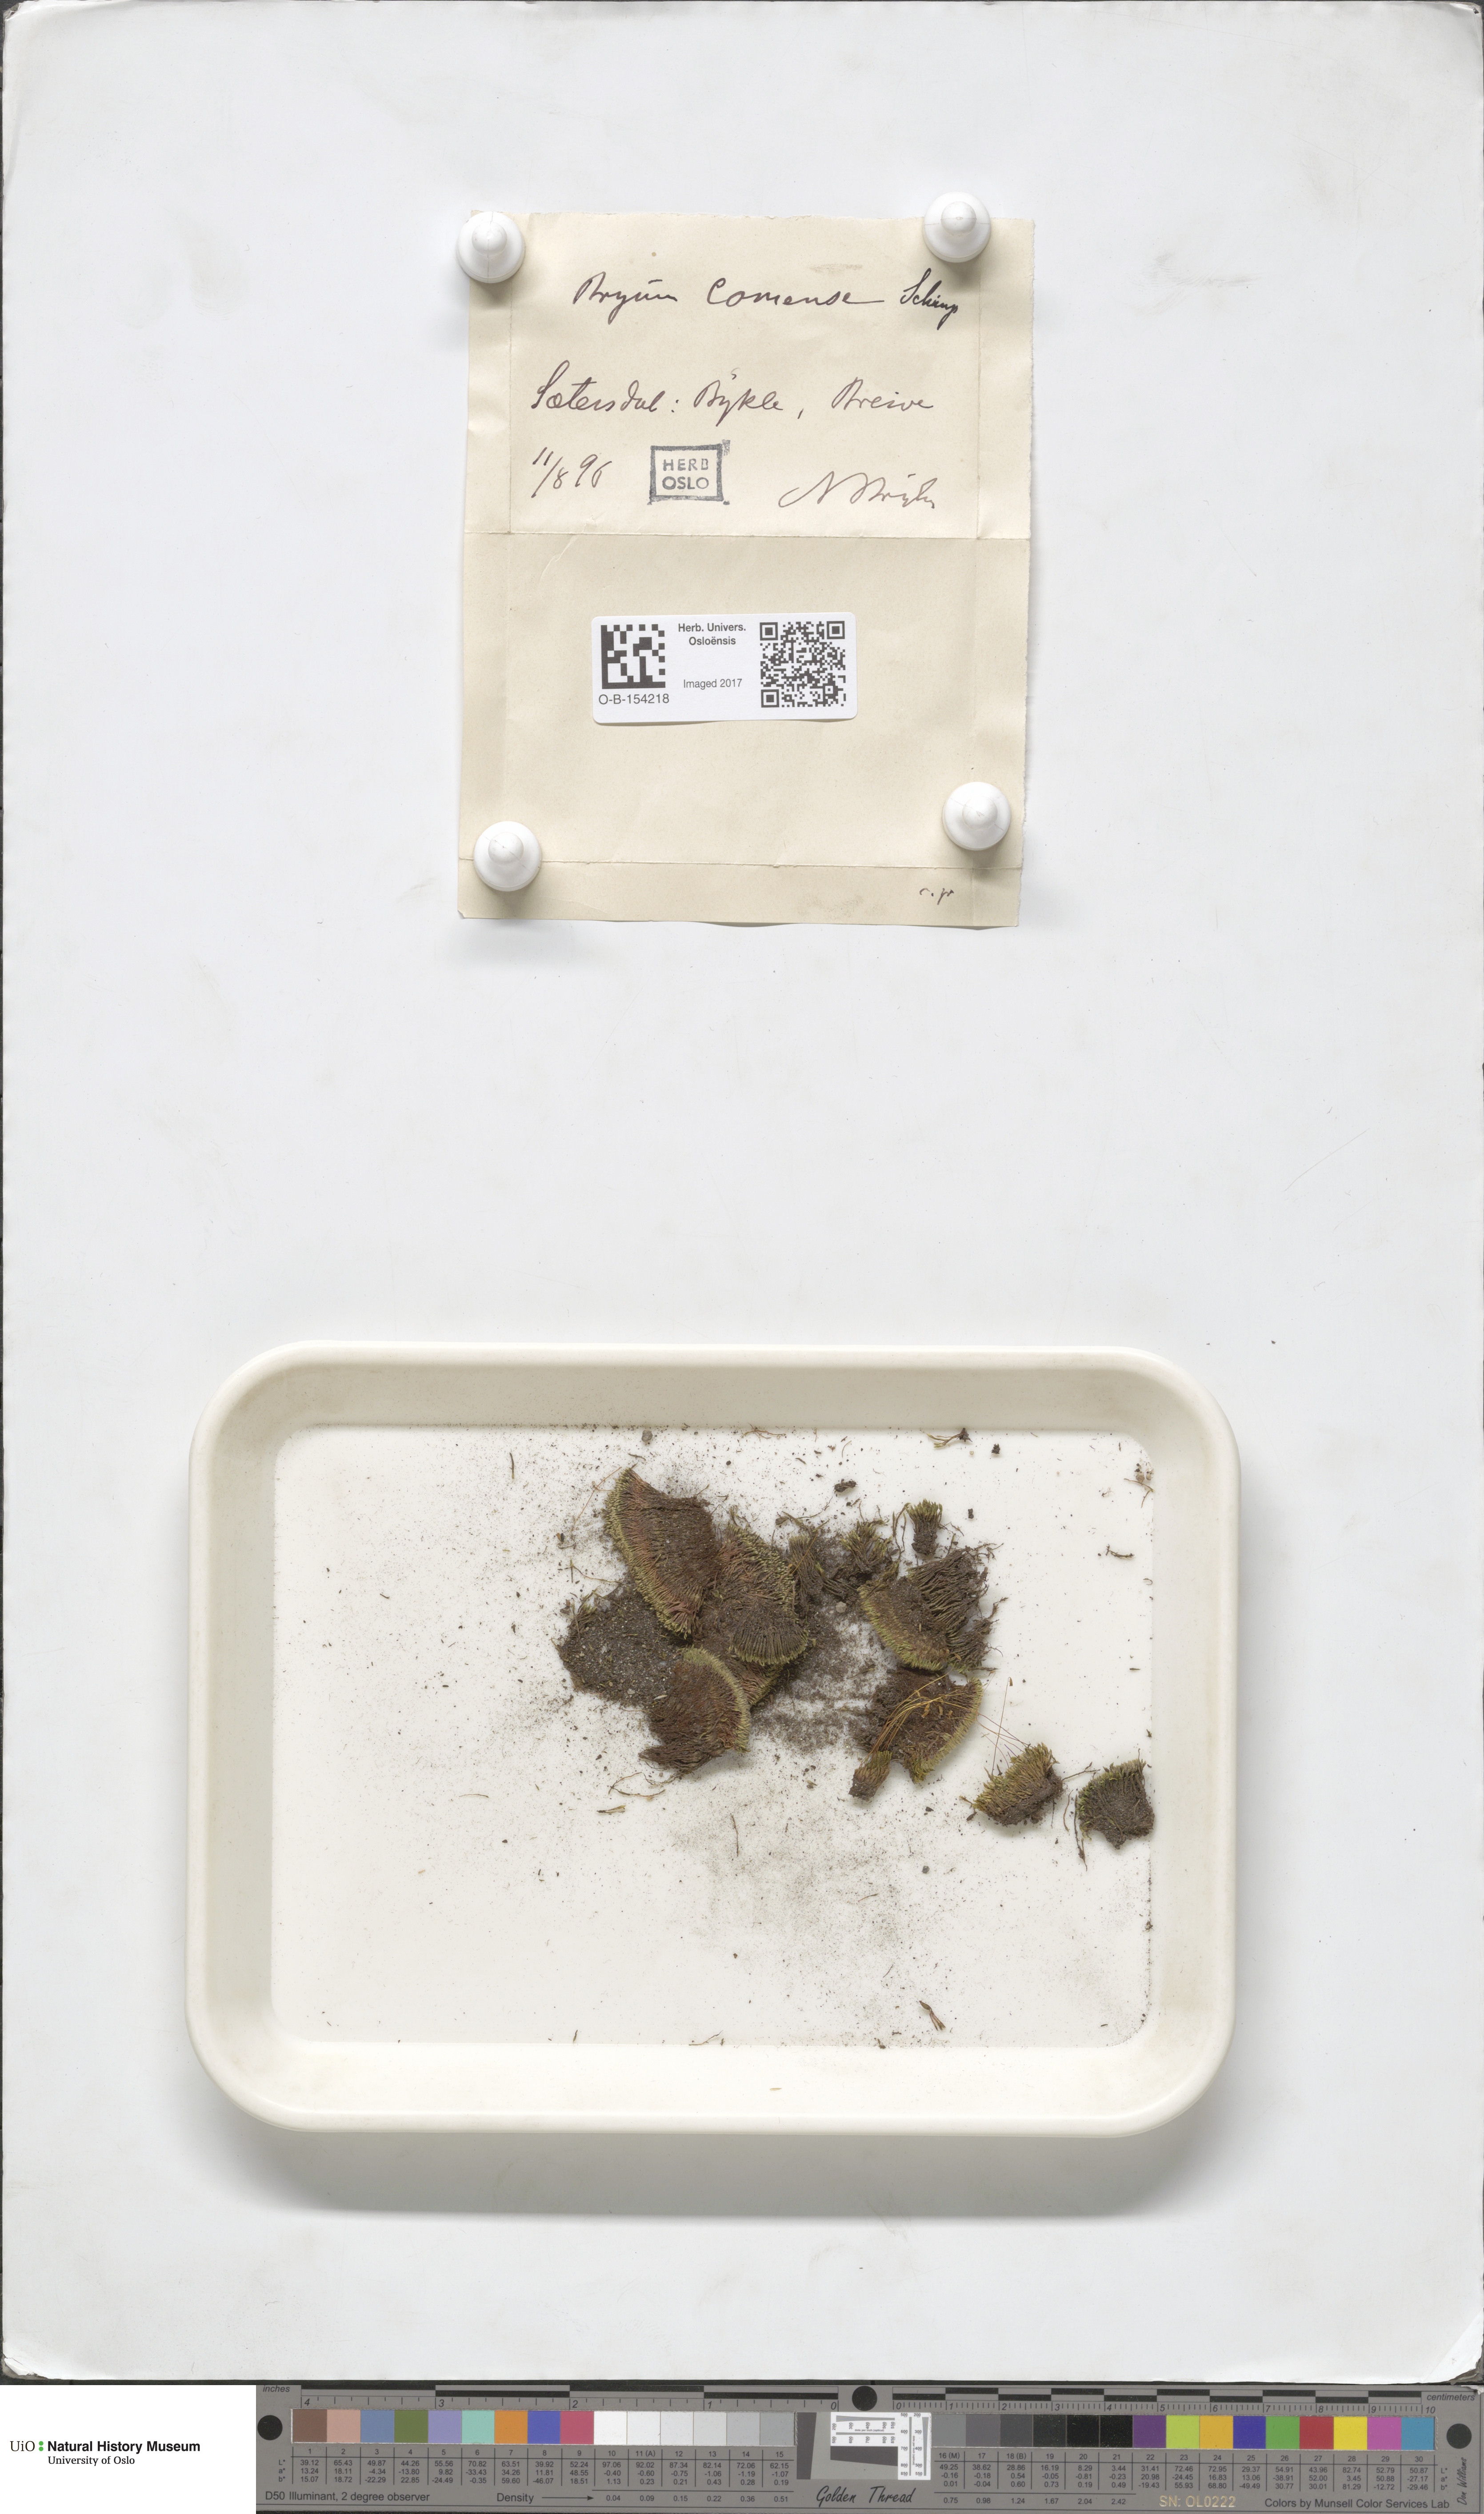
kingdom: Plantae
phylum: Bryophyta
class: Bryopsida
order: Bryales
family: Bryaceae
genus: Gemmabryum
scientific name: Gemmabryum caespiticium
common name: Handbell moss
